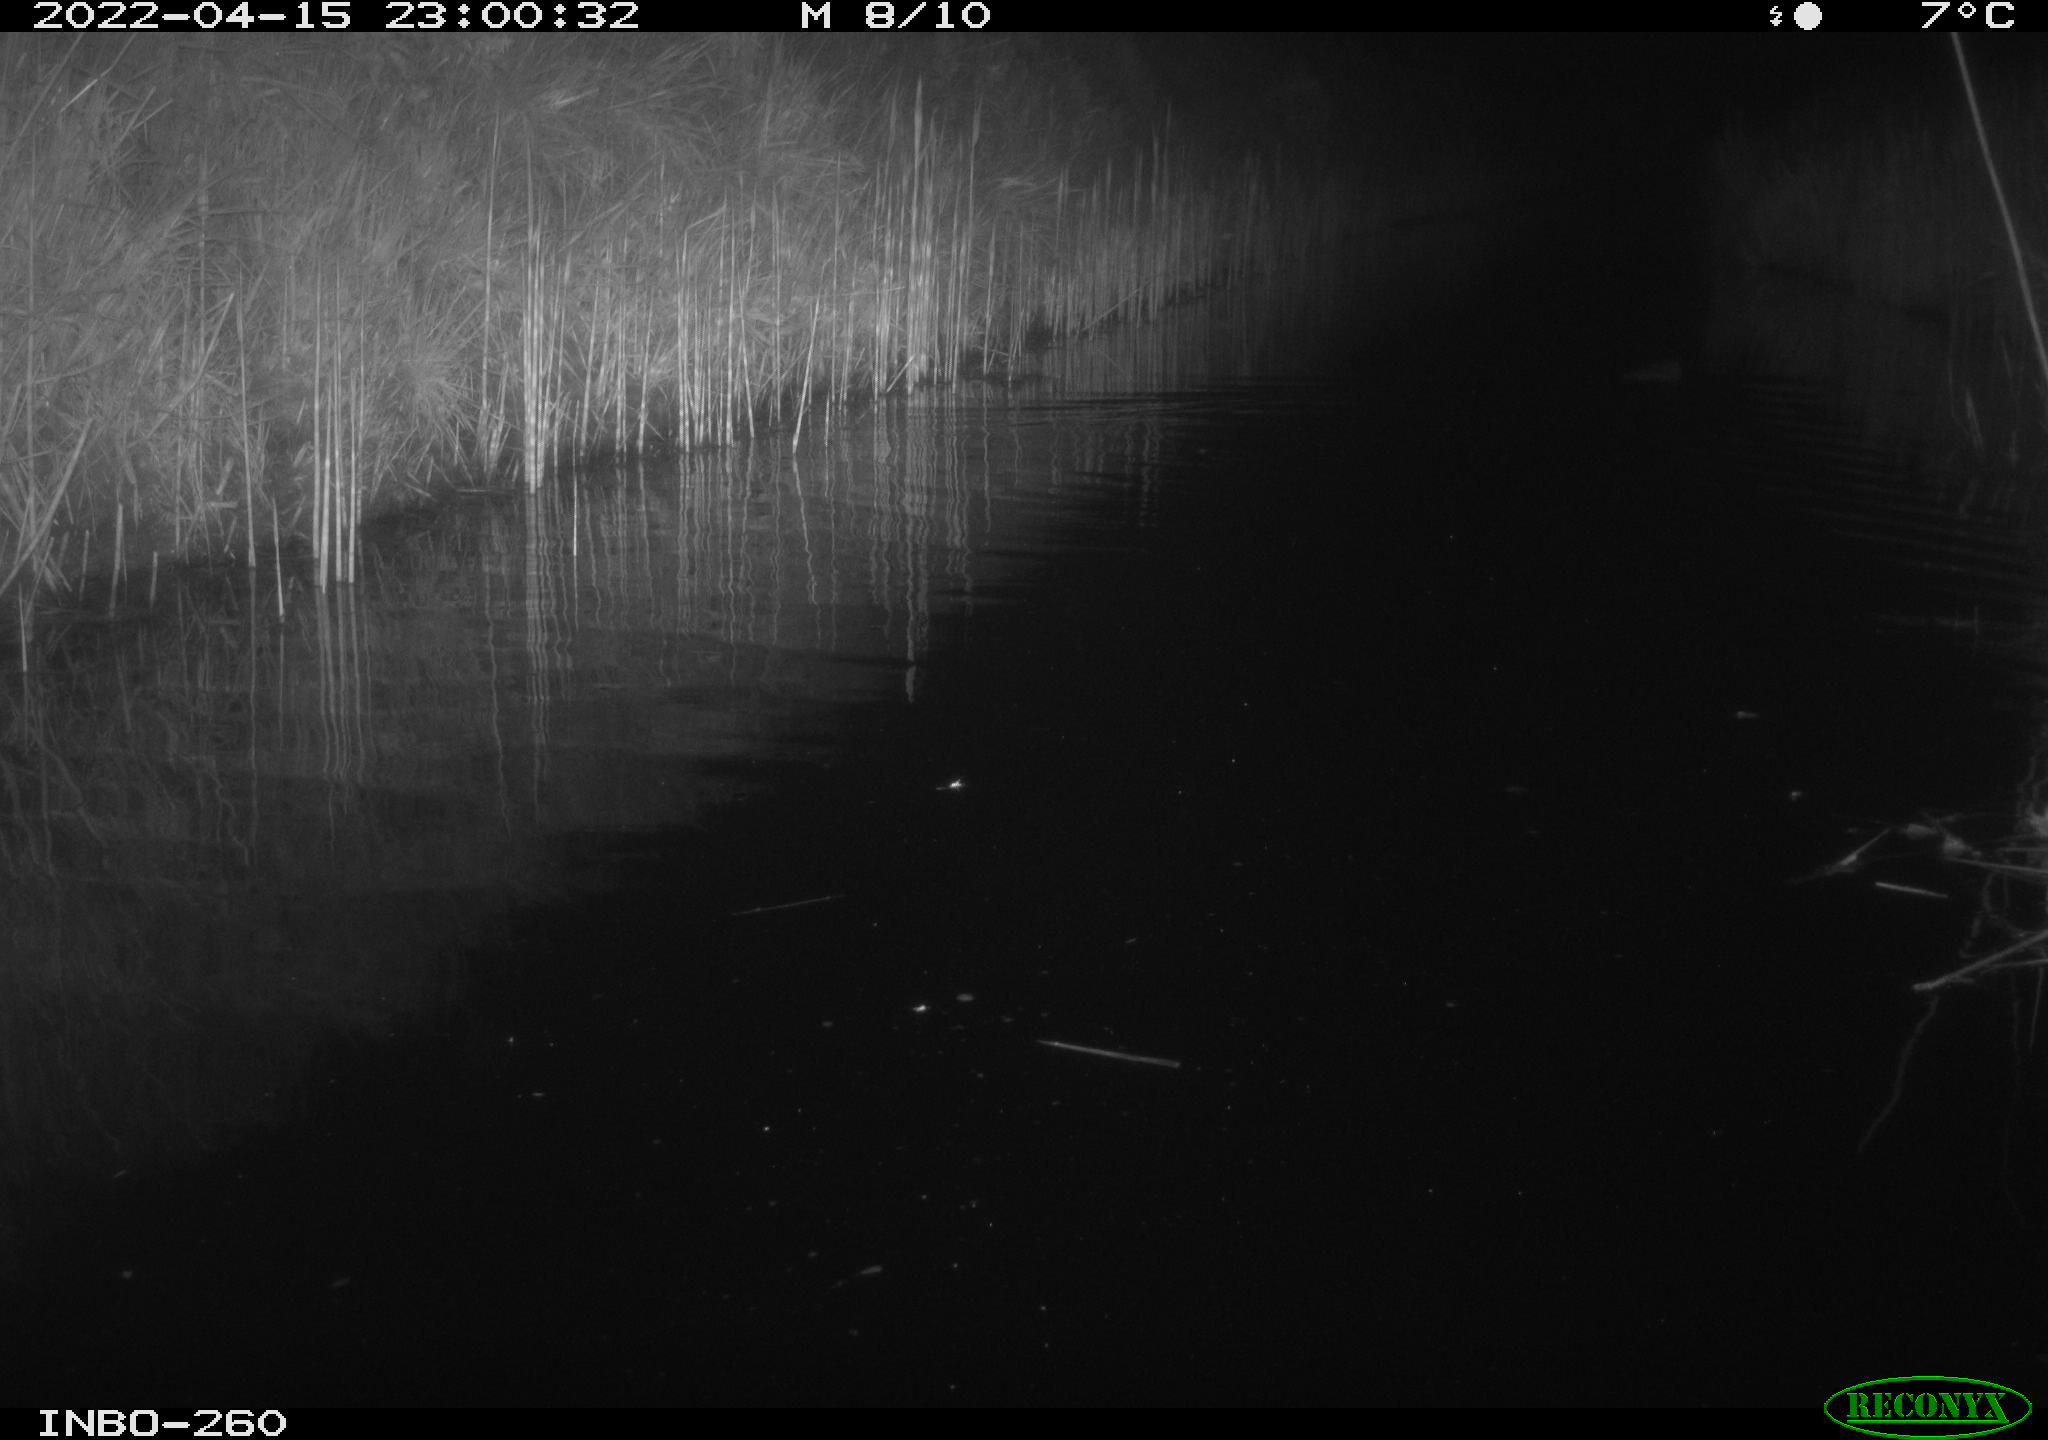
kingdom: Animalia
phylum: Chordata
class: Mammalia
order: Rodentia
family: Castoridae
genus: Castor
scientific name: Castor fiber
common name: Eurasian beaver
